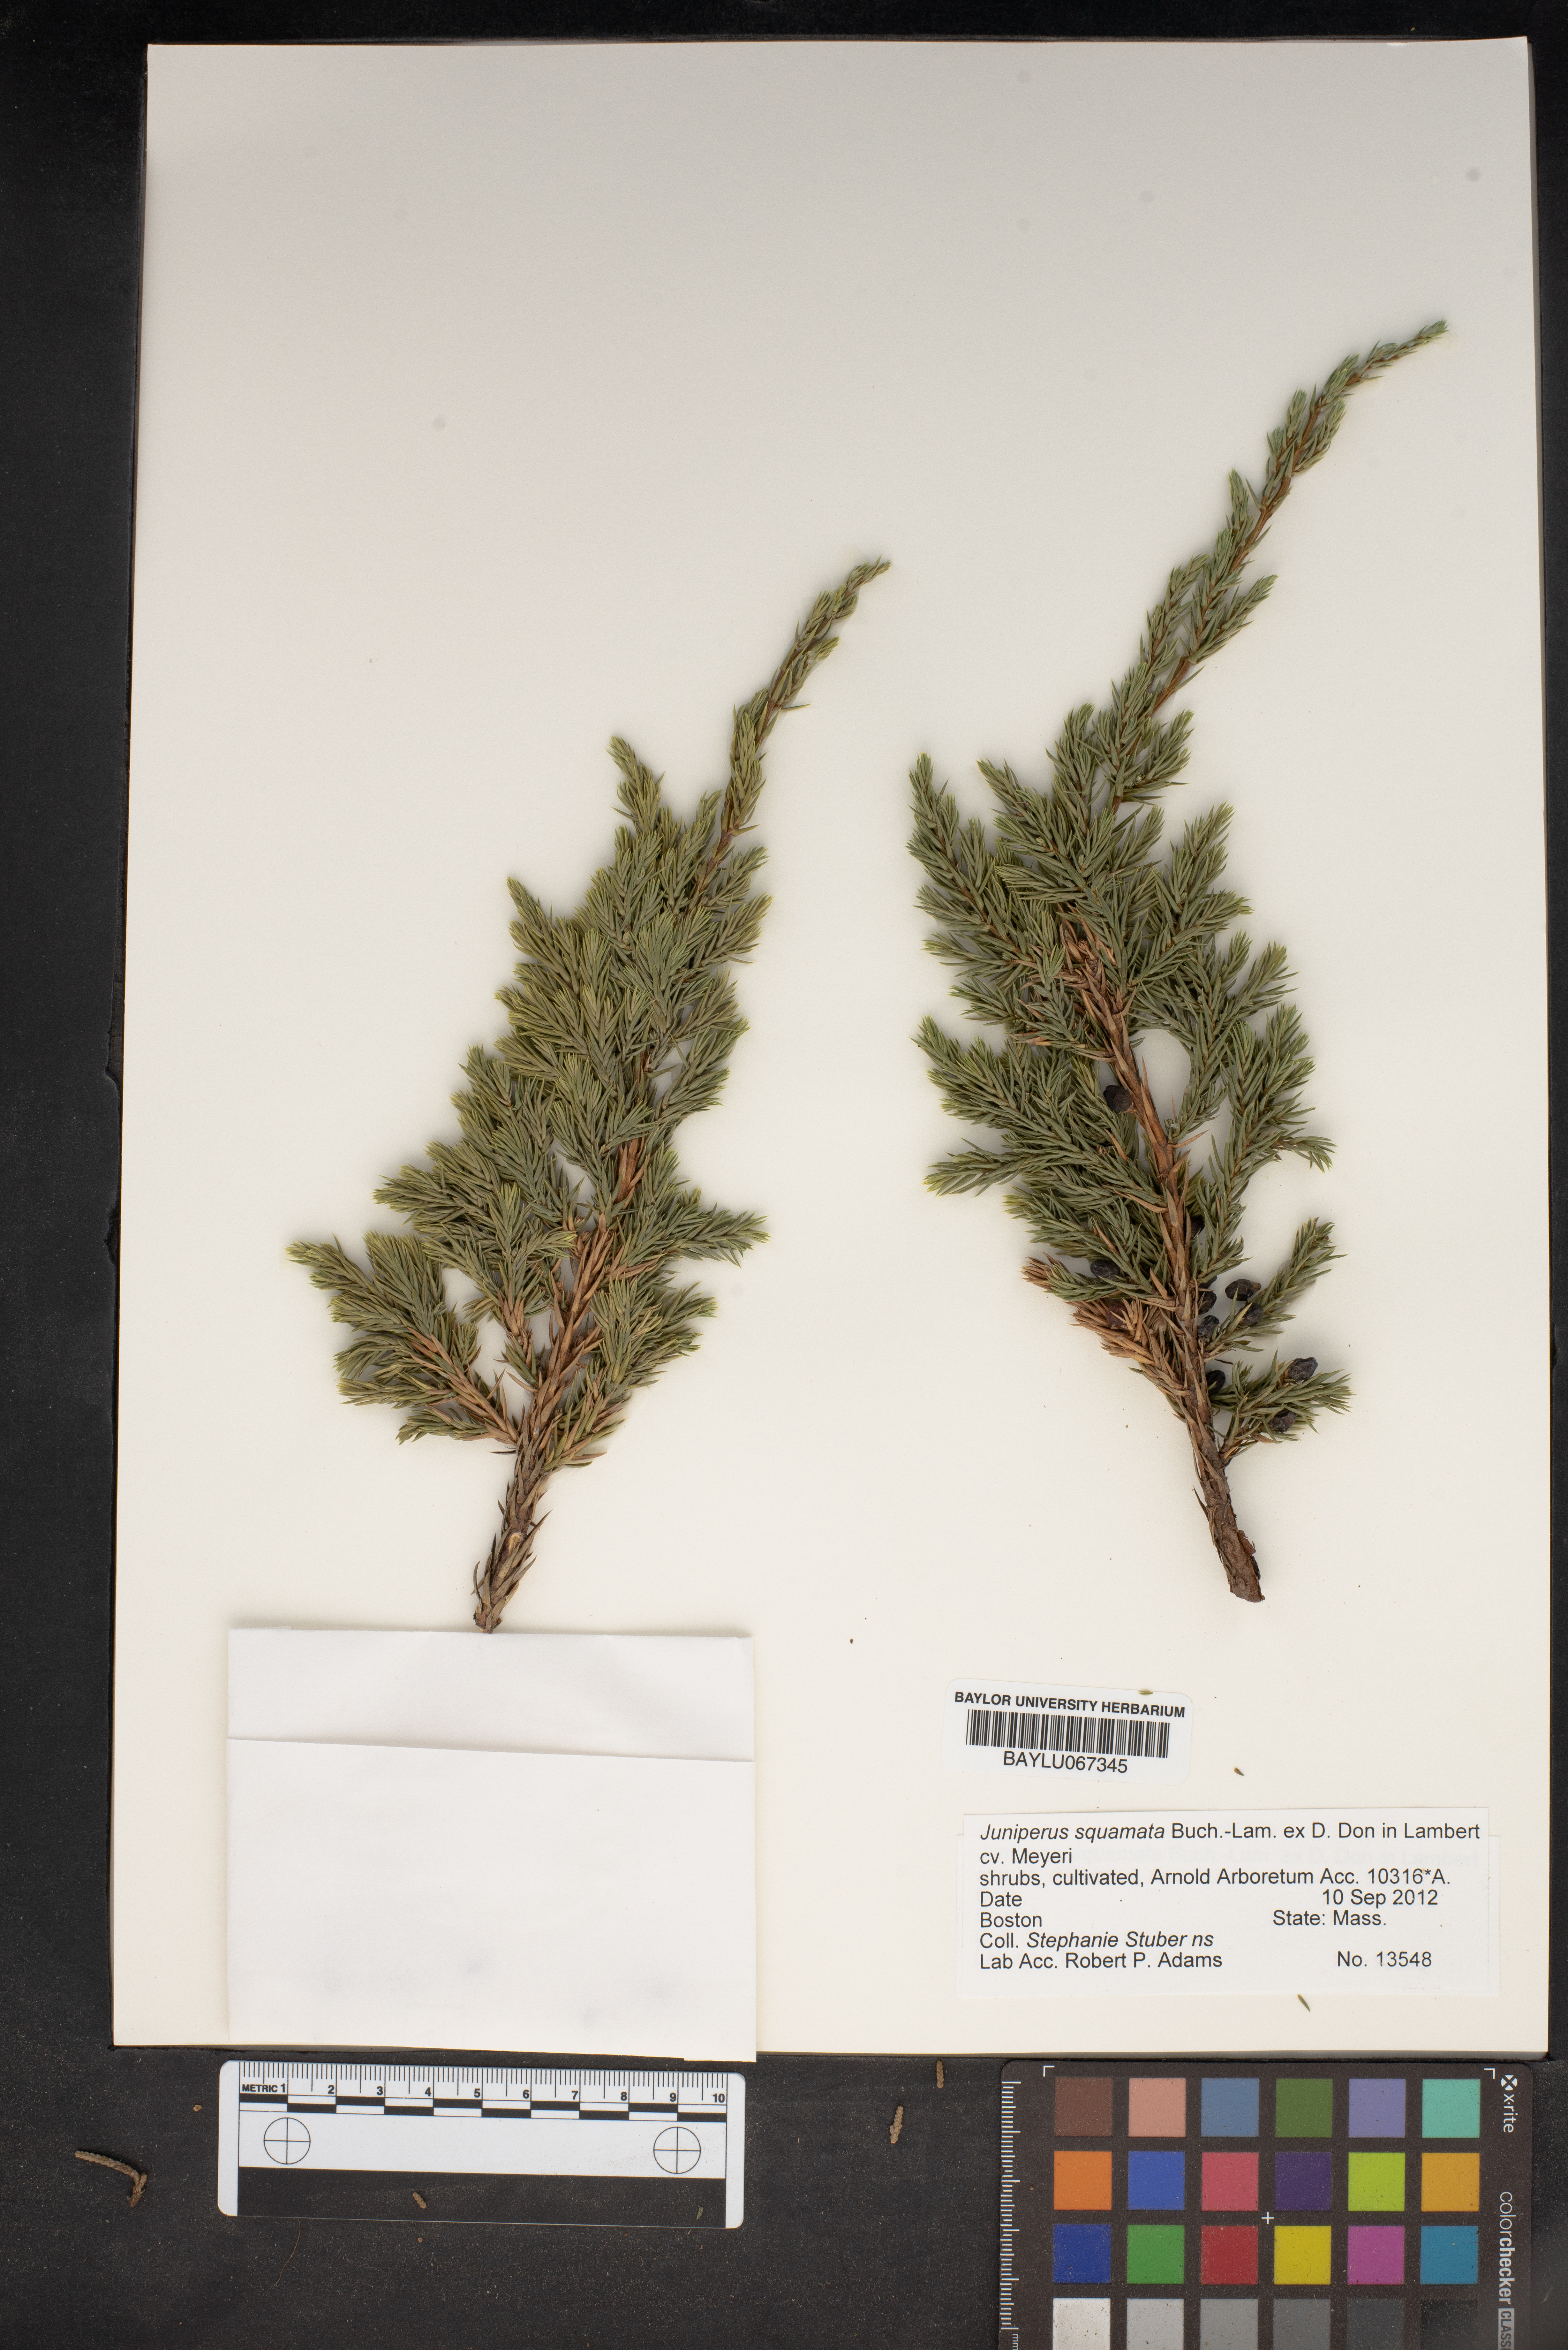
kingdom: Plantae
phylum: Tracheophyta
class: Pinopsida
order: Pinales
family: Cupressaceae
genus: Juniperus
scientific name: Juniperus squamata
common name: Flaky juniper
